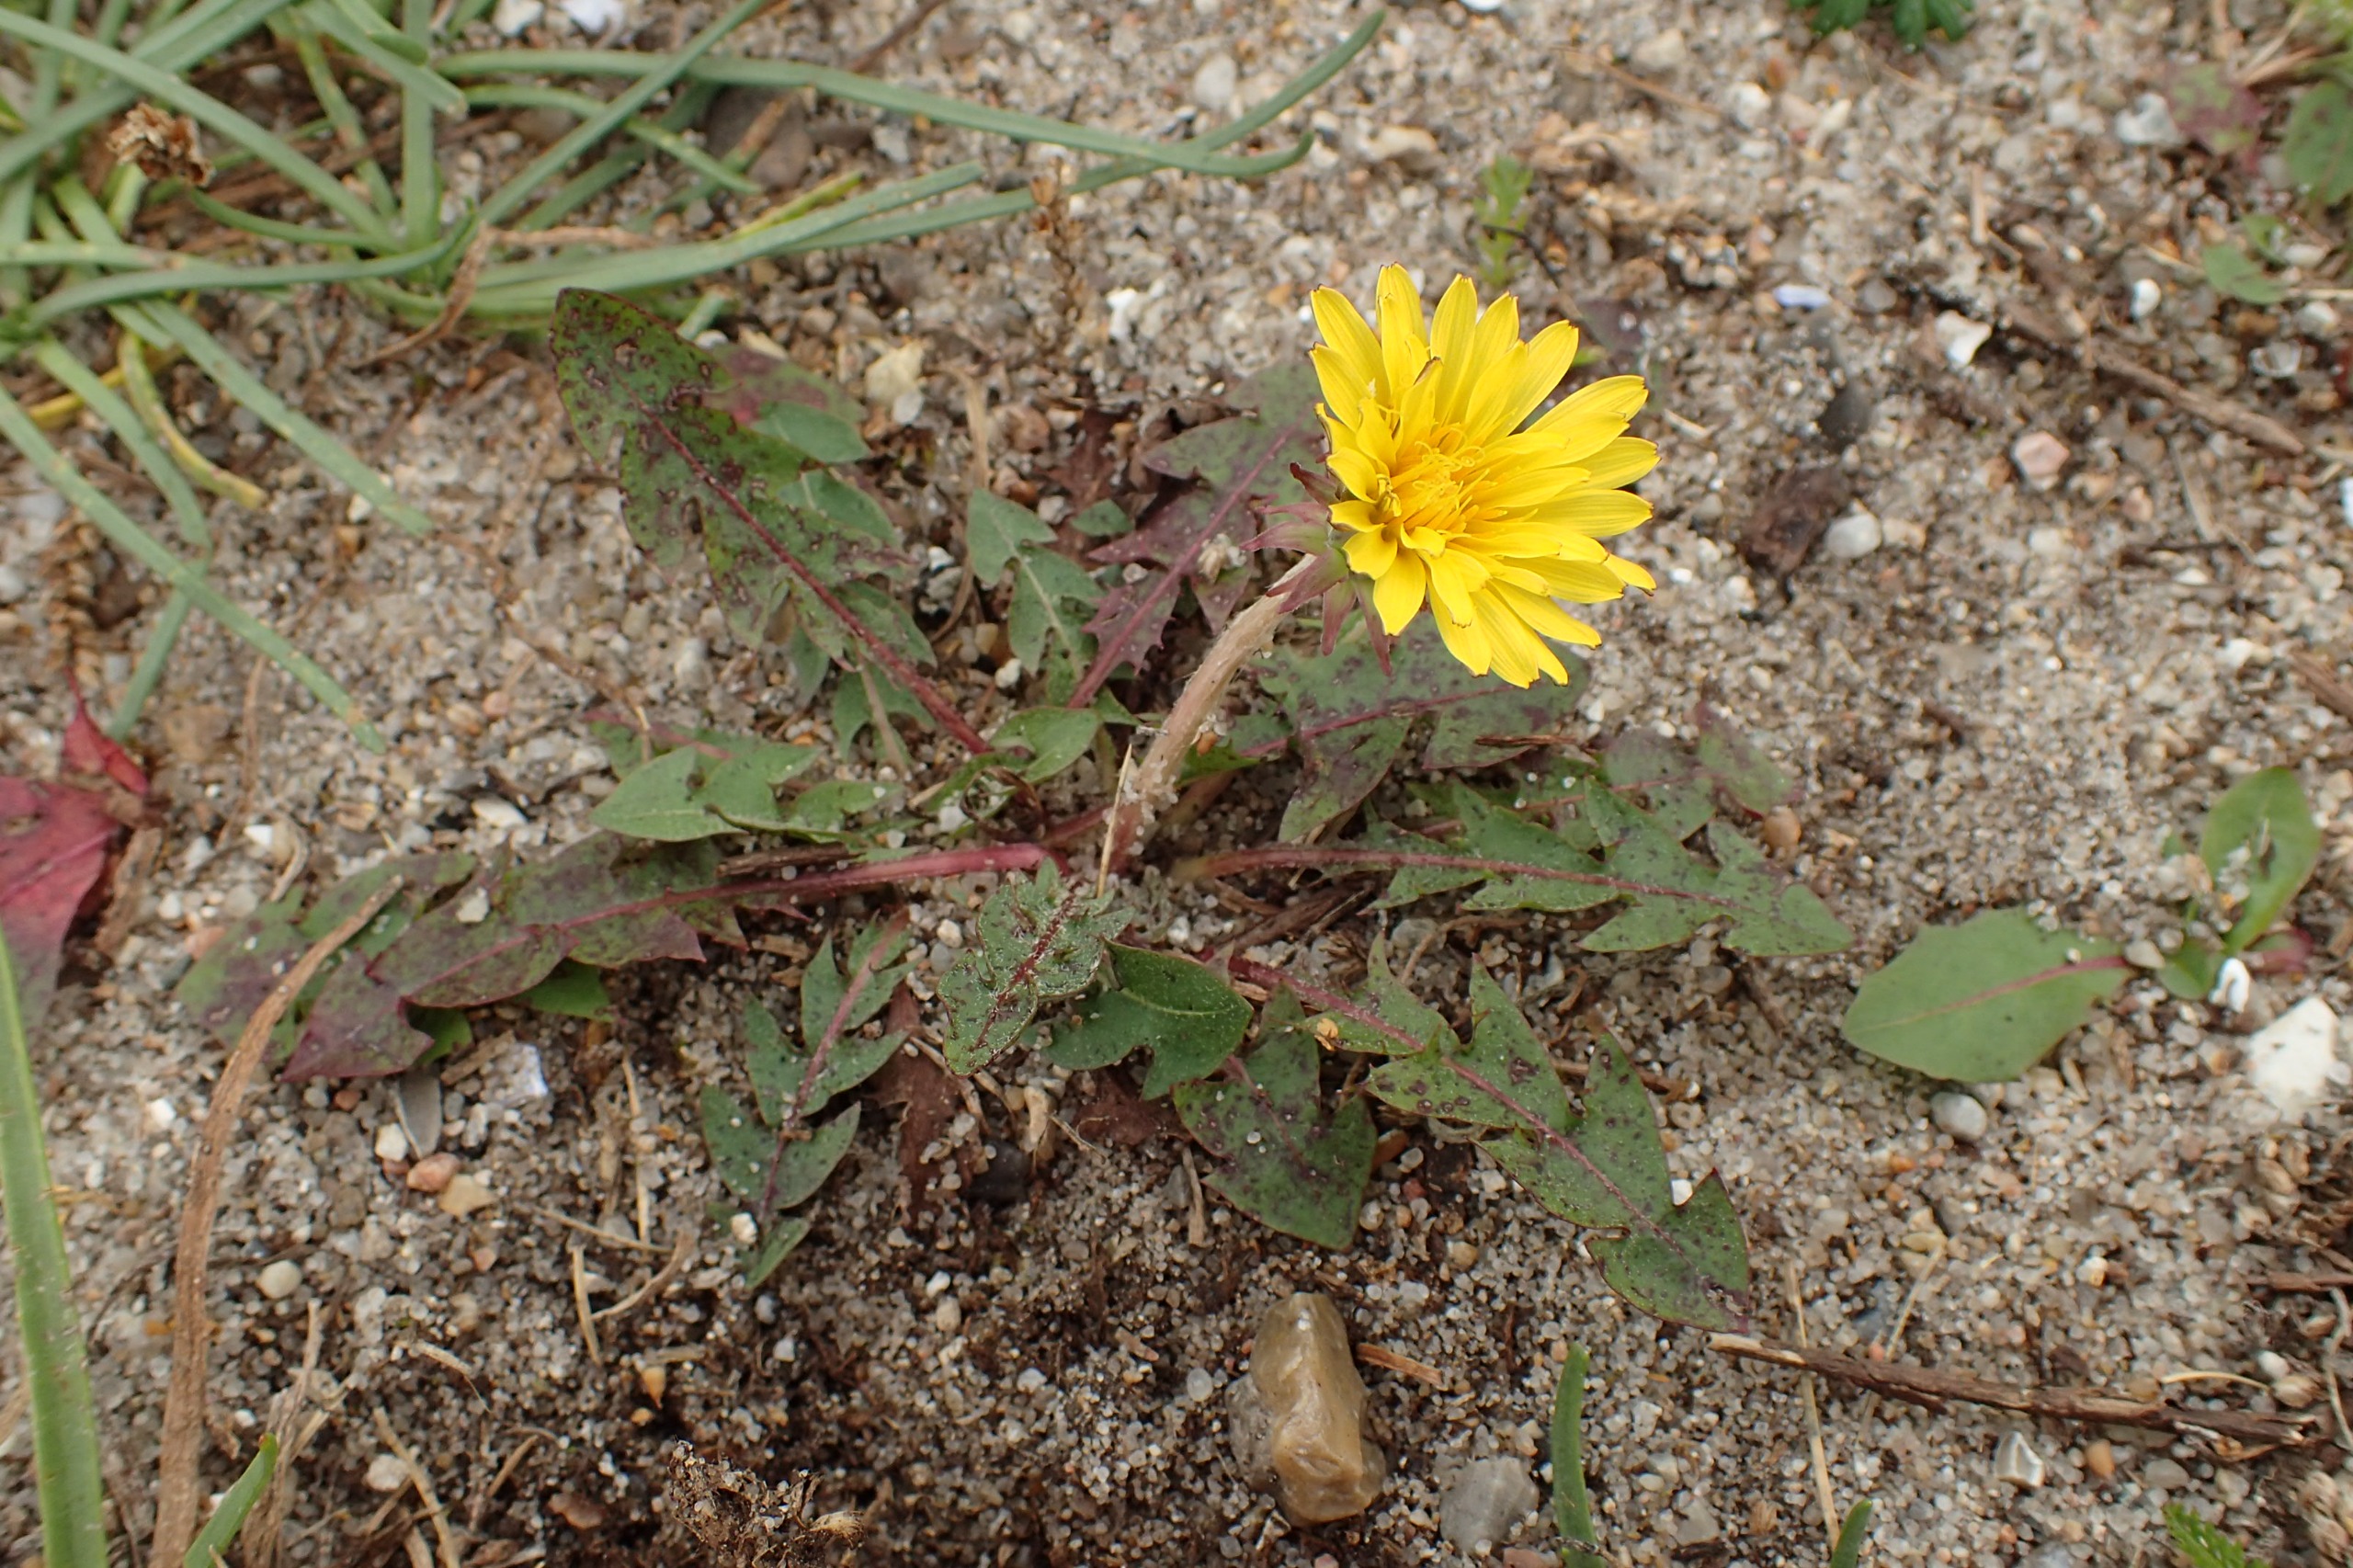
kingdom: Plantae
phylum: Tracheophyta
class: Magnoliopsida
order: Asterales
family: Asteraceae
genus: Taraxacum
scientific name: Taraxacum brachyglossum
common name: Mørk sandmælkebøtte
